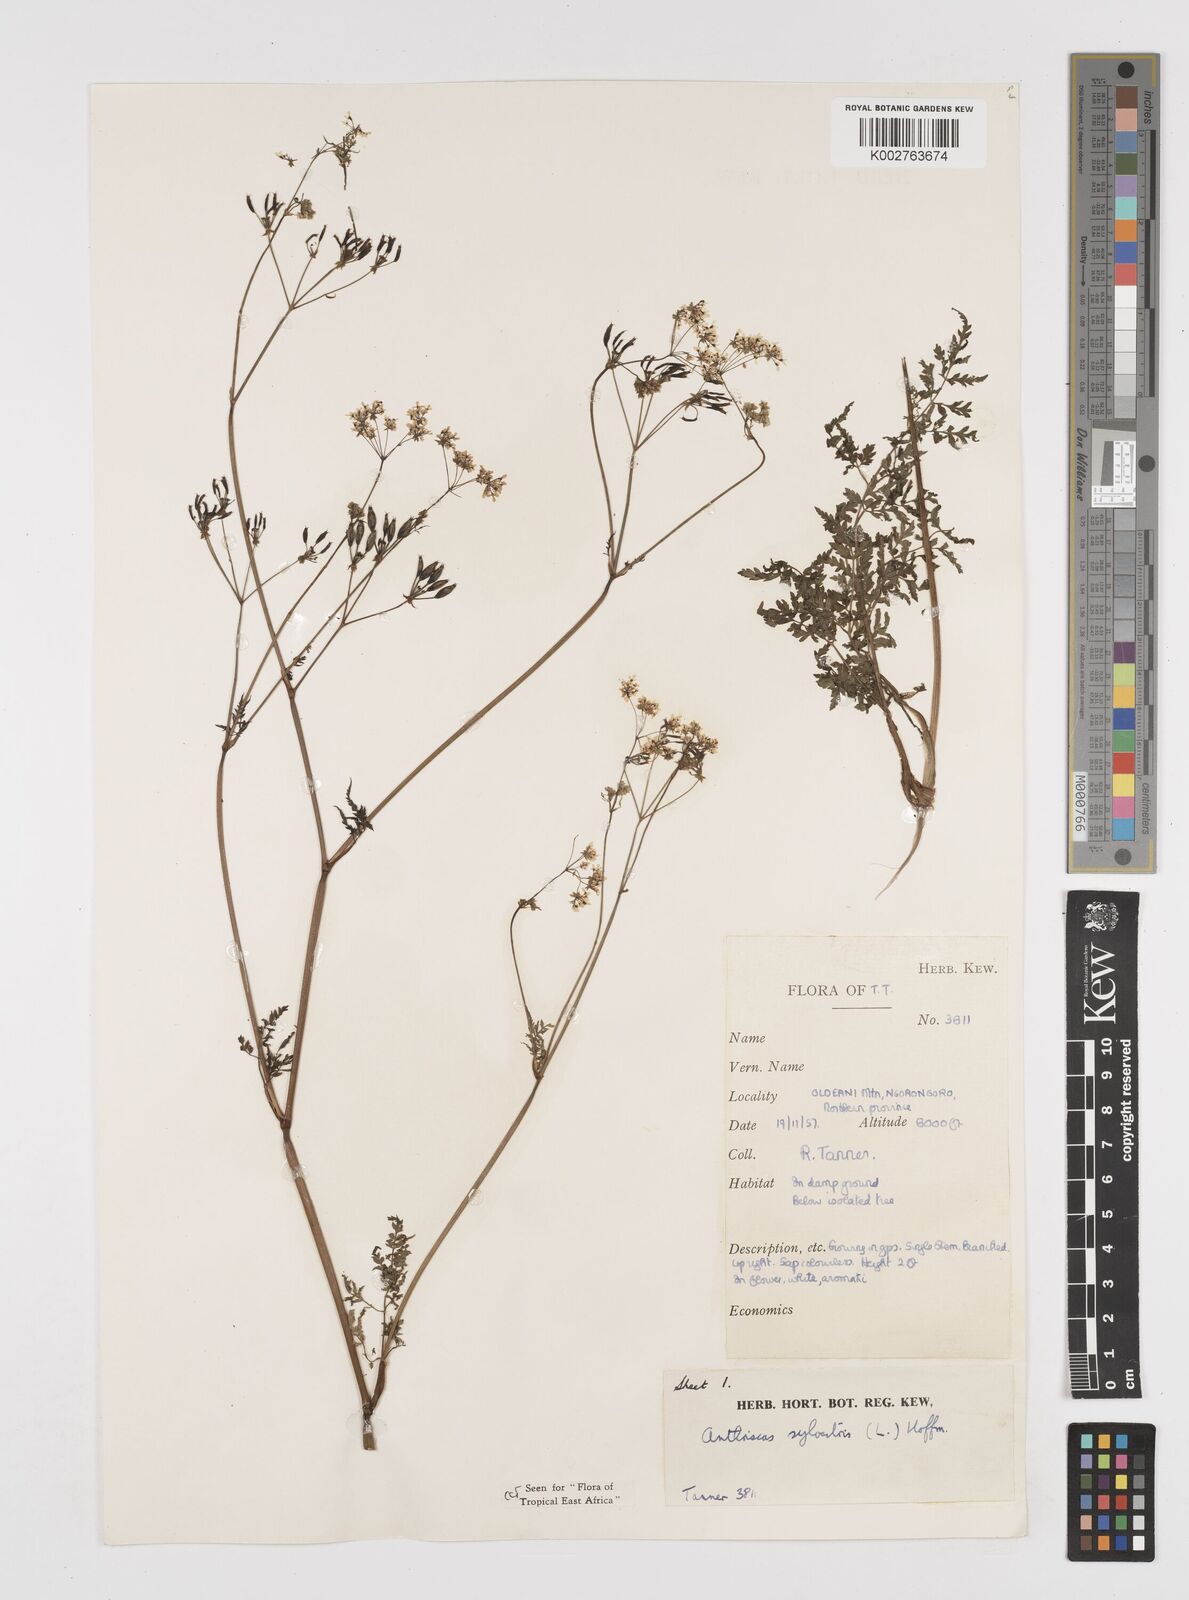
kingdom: Plantae
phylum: Tracheophyta
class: Magnoliopsida
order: Apiales
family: Apiaceae
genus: Anthriscus
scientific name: Anthriscus sylvestris
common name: Cow parsley
